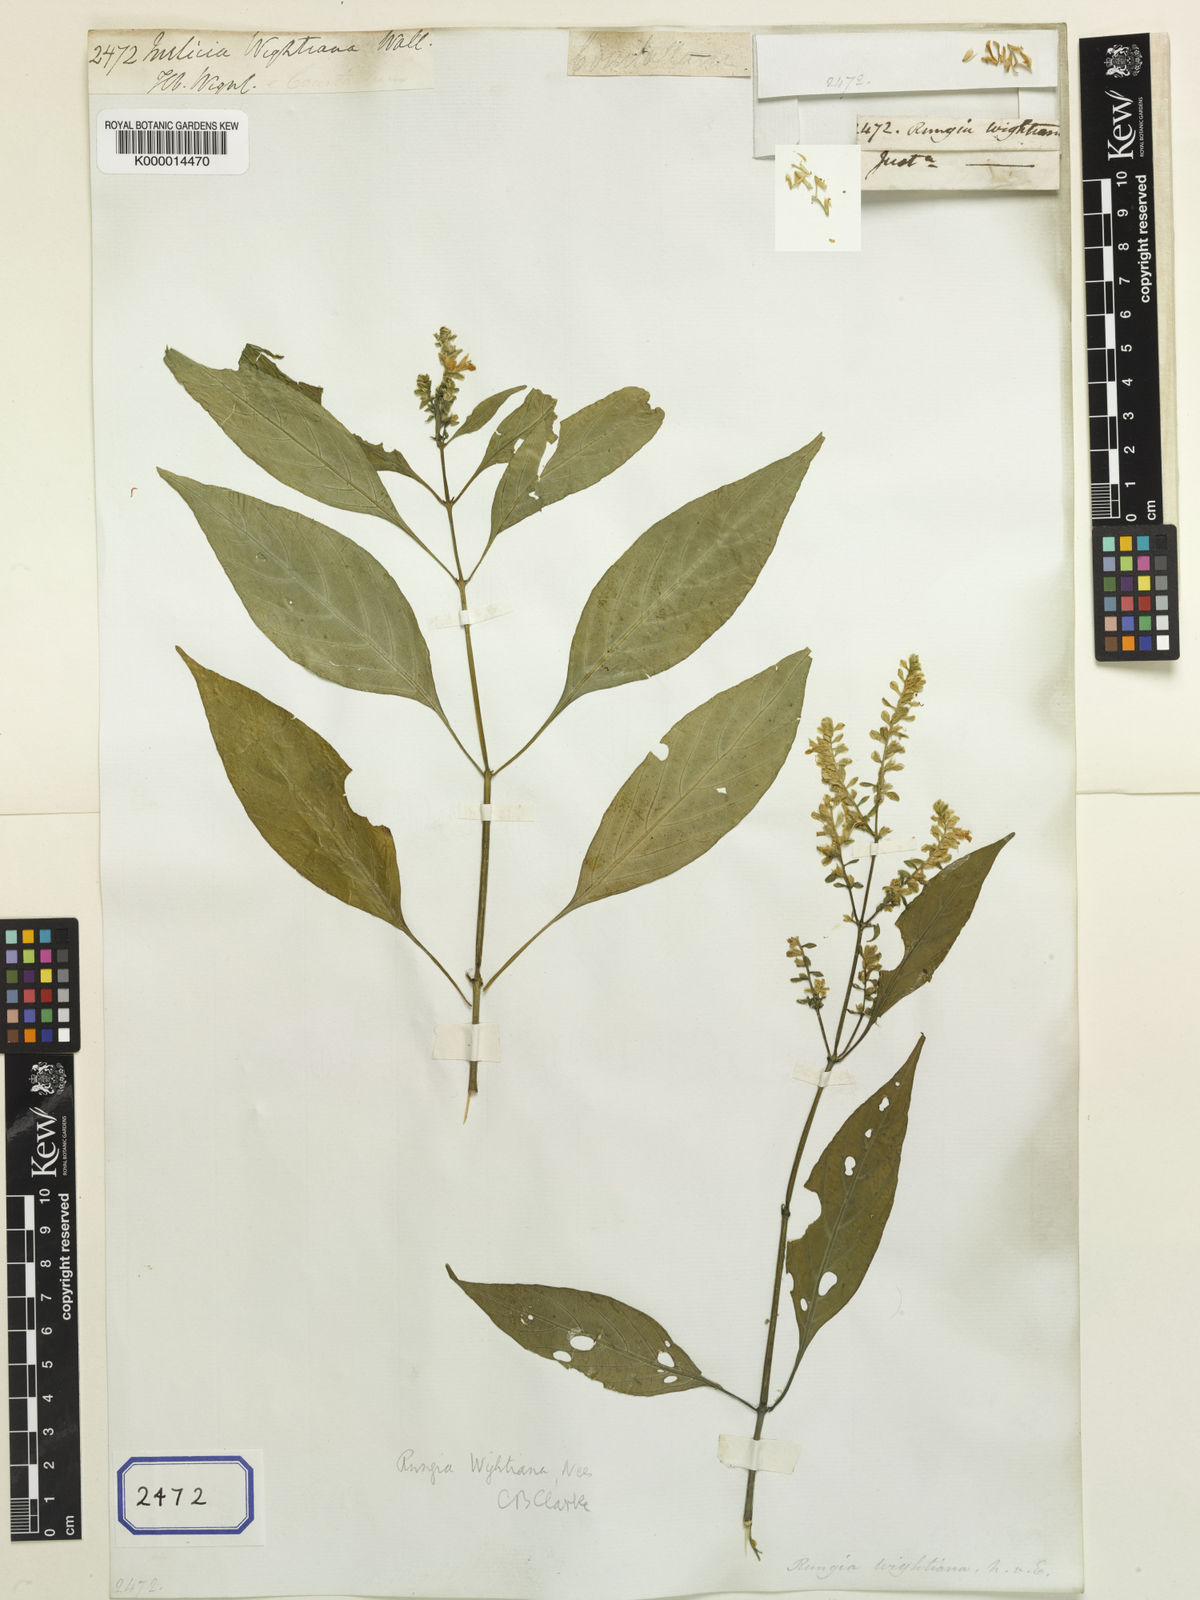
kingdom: Plantae
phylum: Tracheophyta
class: Magnoliopsida
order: Lamiales
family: Acanthaceae
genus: Rungia
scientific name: Rungia wightiana
